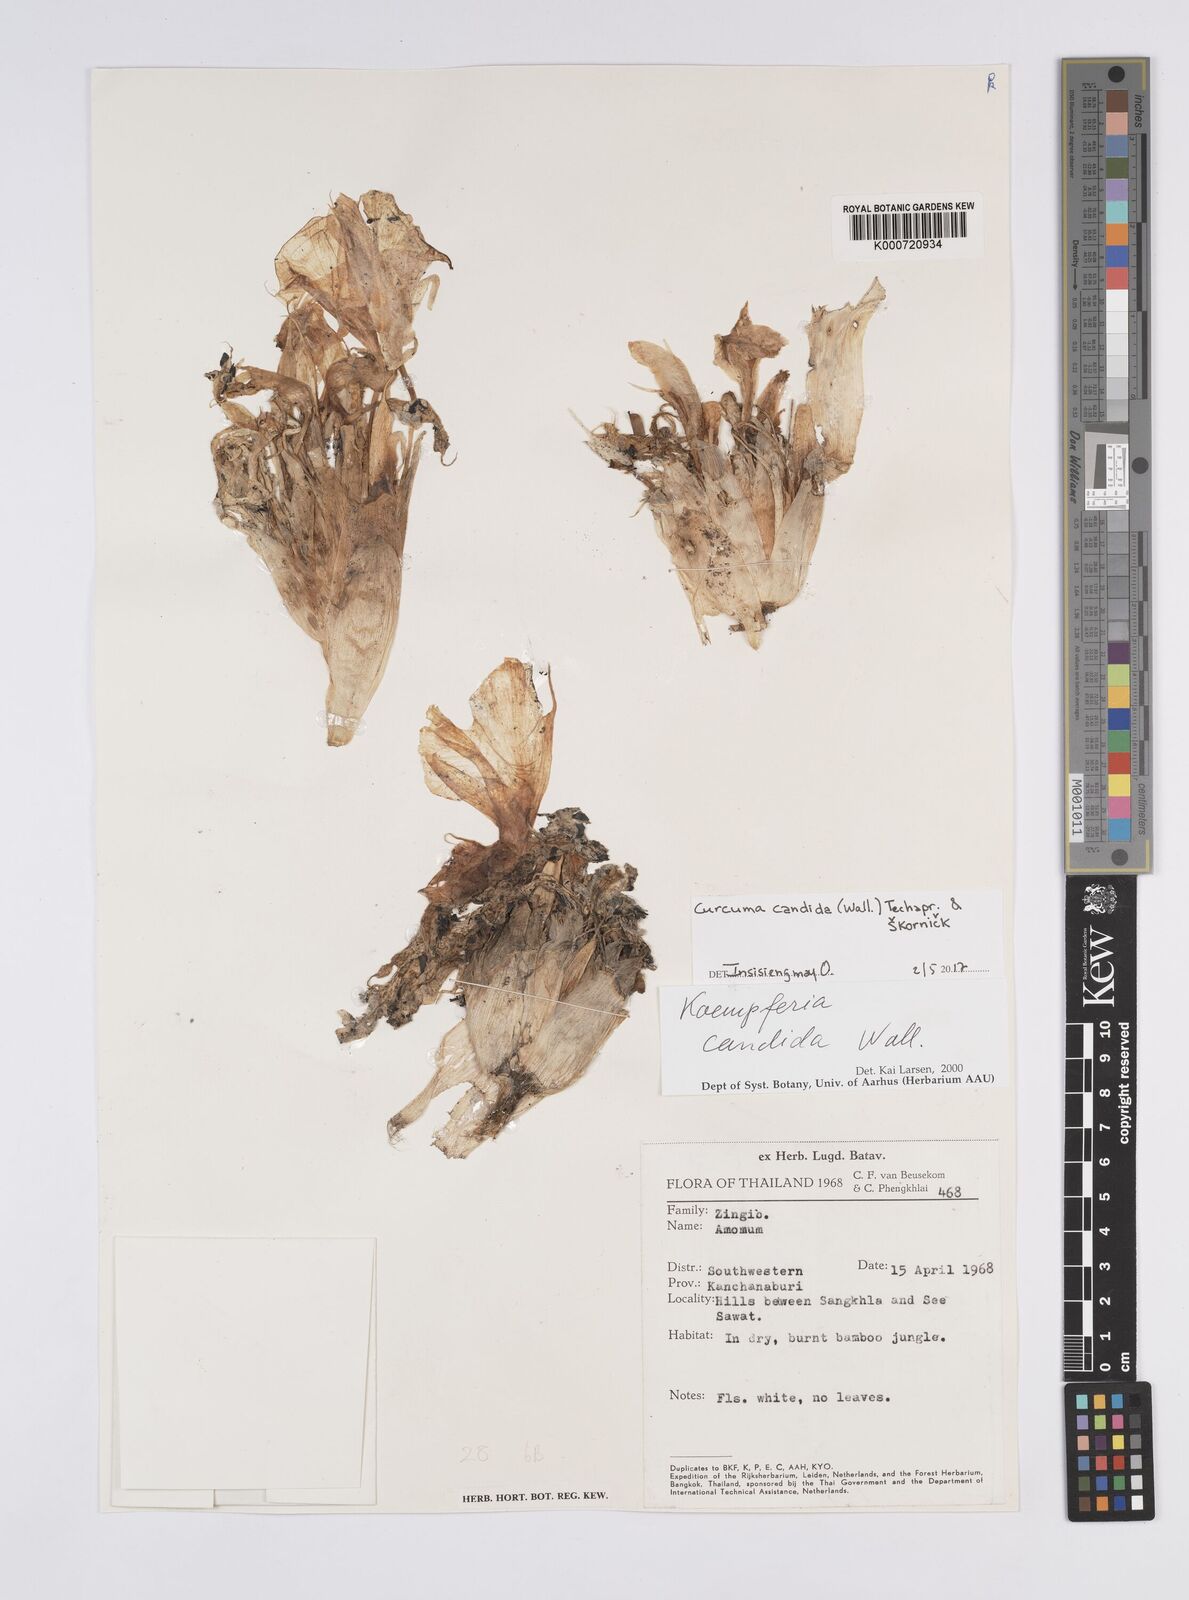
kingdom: Plantae
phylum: Tracheophyta
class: Liliopsida
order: Zingiberales
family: Zingiberaceae
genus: Curcuma
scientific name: Curcuma
